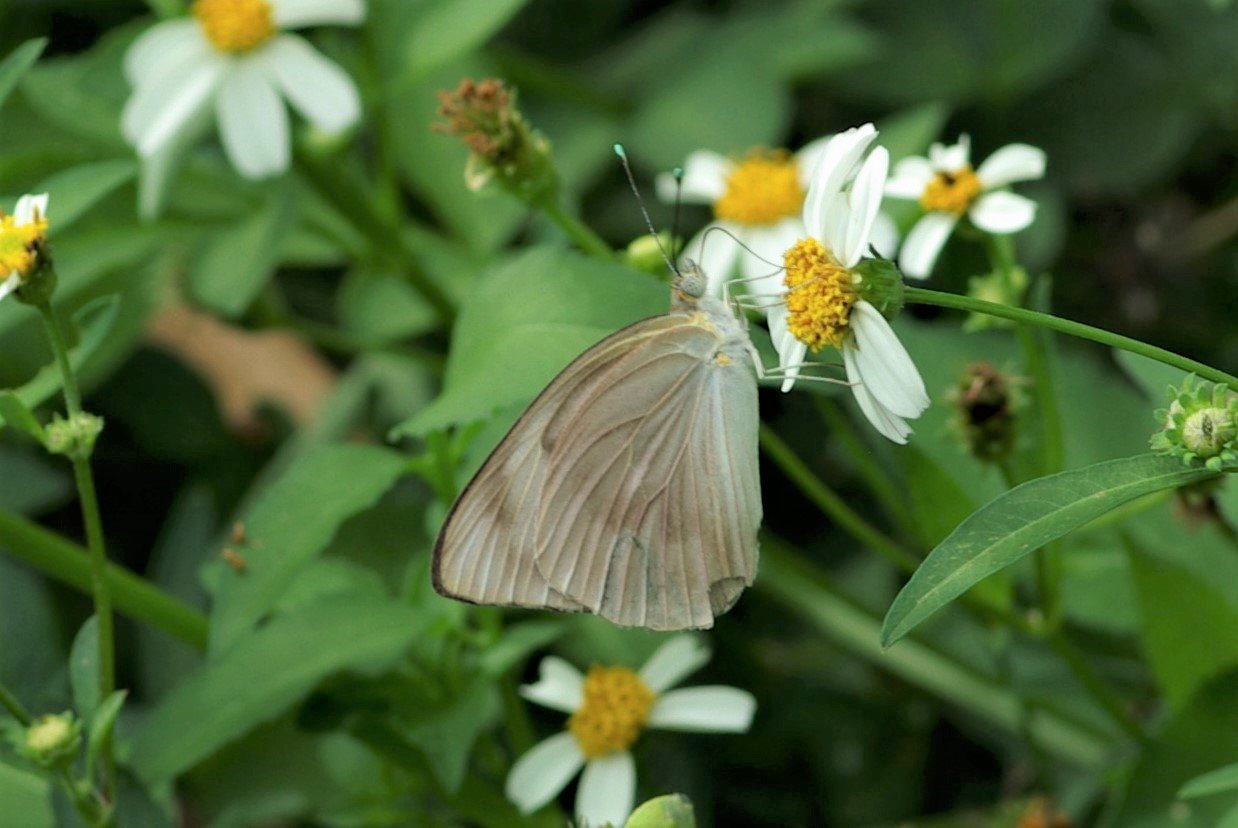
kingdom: Animalia
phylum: Arthropoda
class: Insecta
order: Lepidoptera
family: Pieridae
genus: Ascia
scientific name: Ascia monuste
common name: Great Southern White
